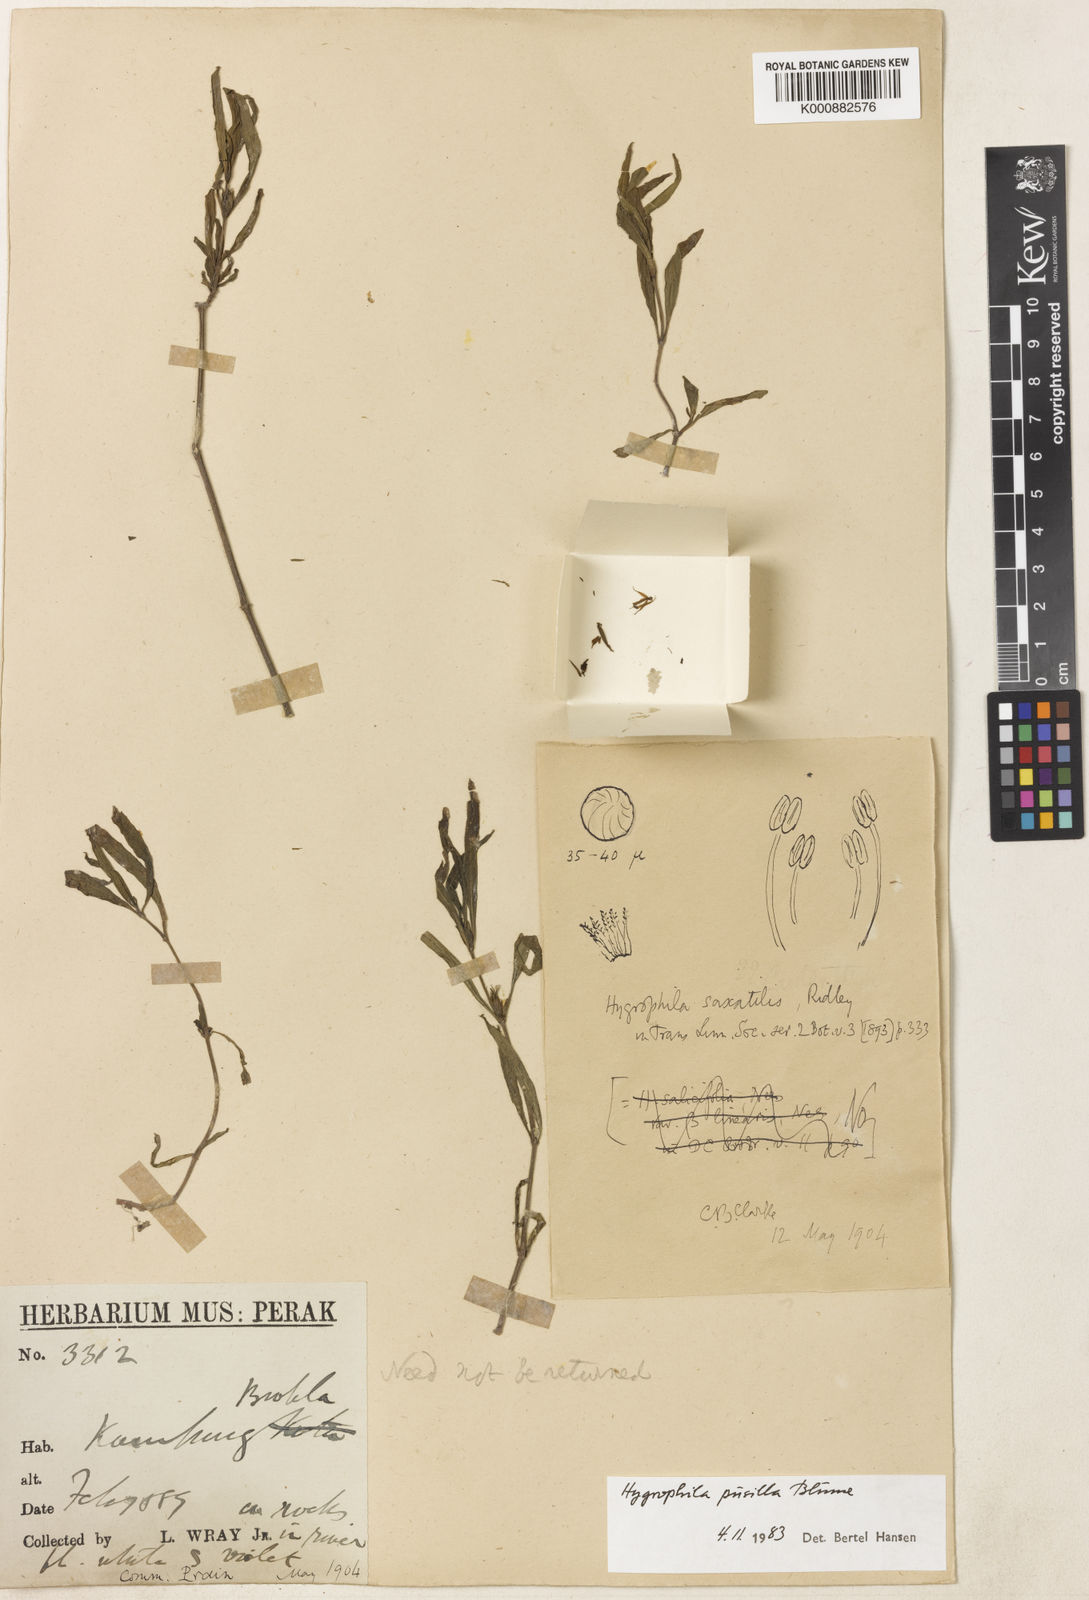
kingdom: Plantae
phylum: Tracheophyta
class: Magnoliopsida
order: Lamiales
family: Acanthaceae
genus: Hygrophila
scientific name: Hygrophila pusilla
